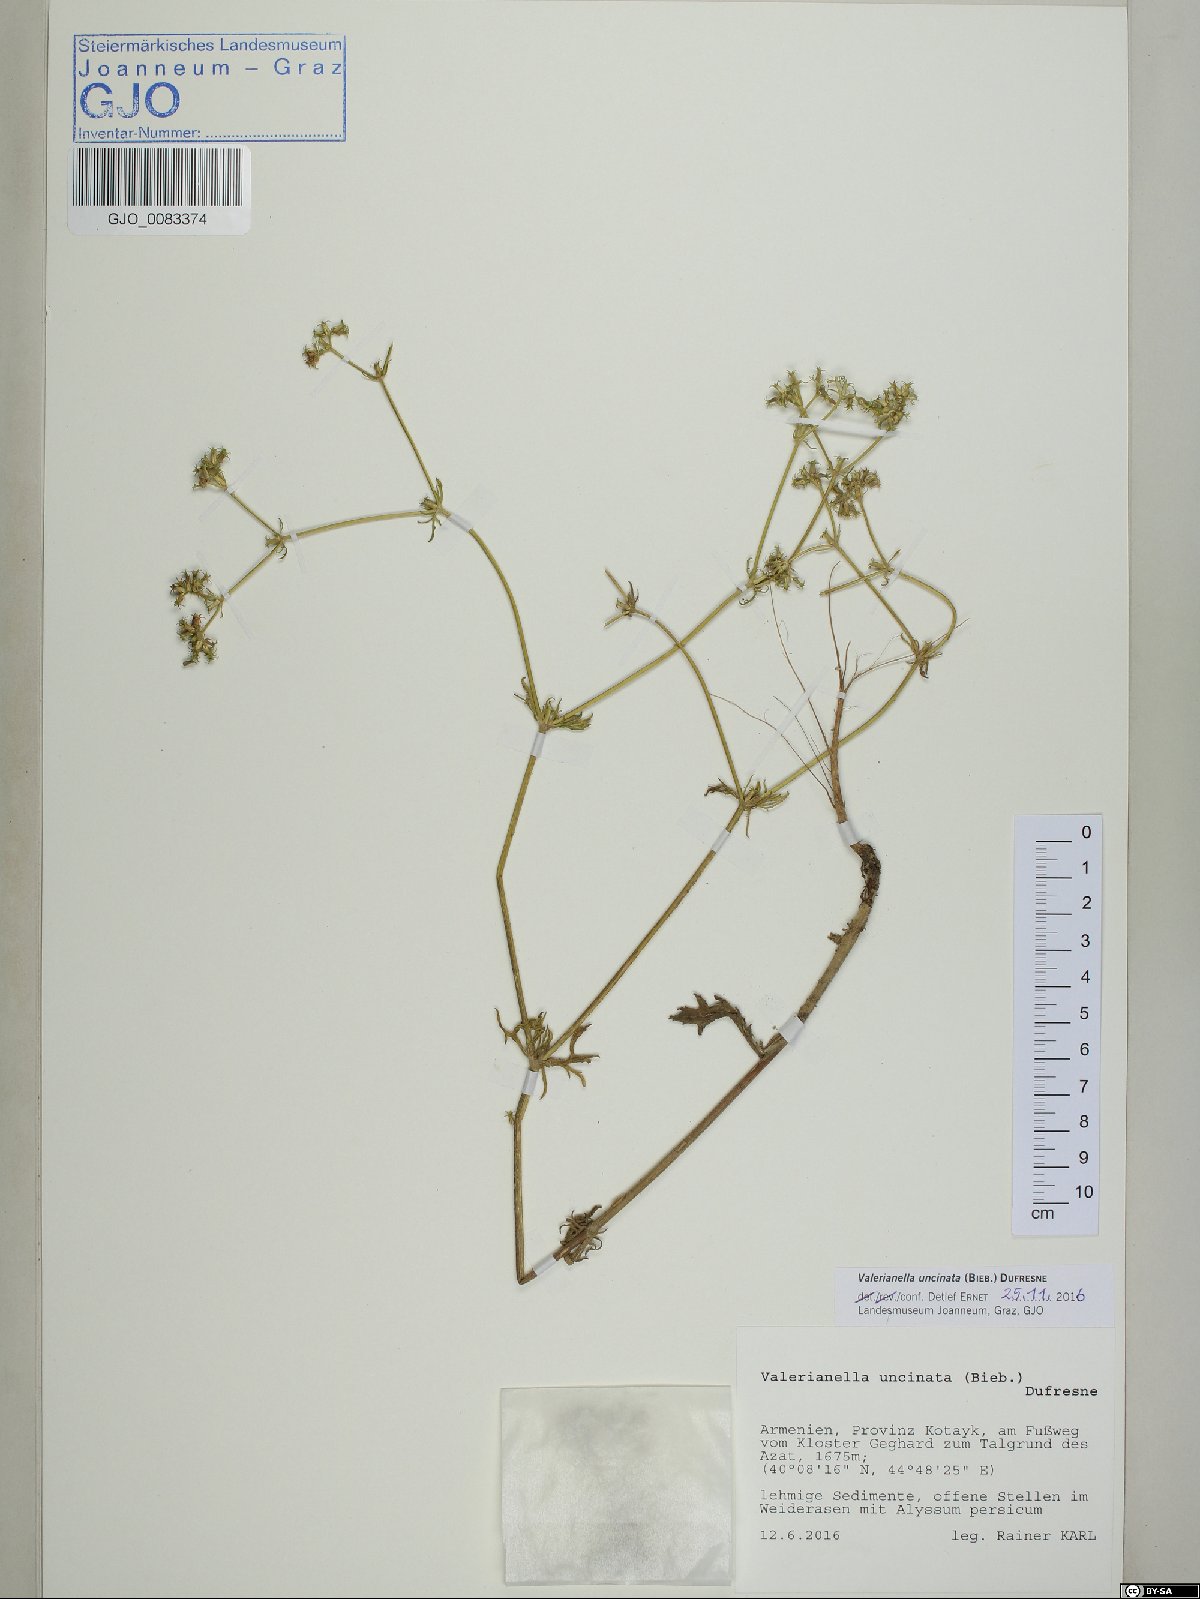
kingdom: Plantae
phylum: Tracheophyta
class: Magnoliopsida
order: Dipsacales
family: Caprifoliaceae
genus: Valerianella
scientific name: Valerianella uncinata
